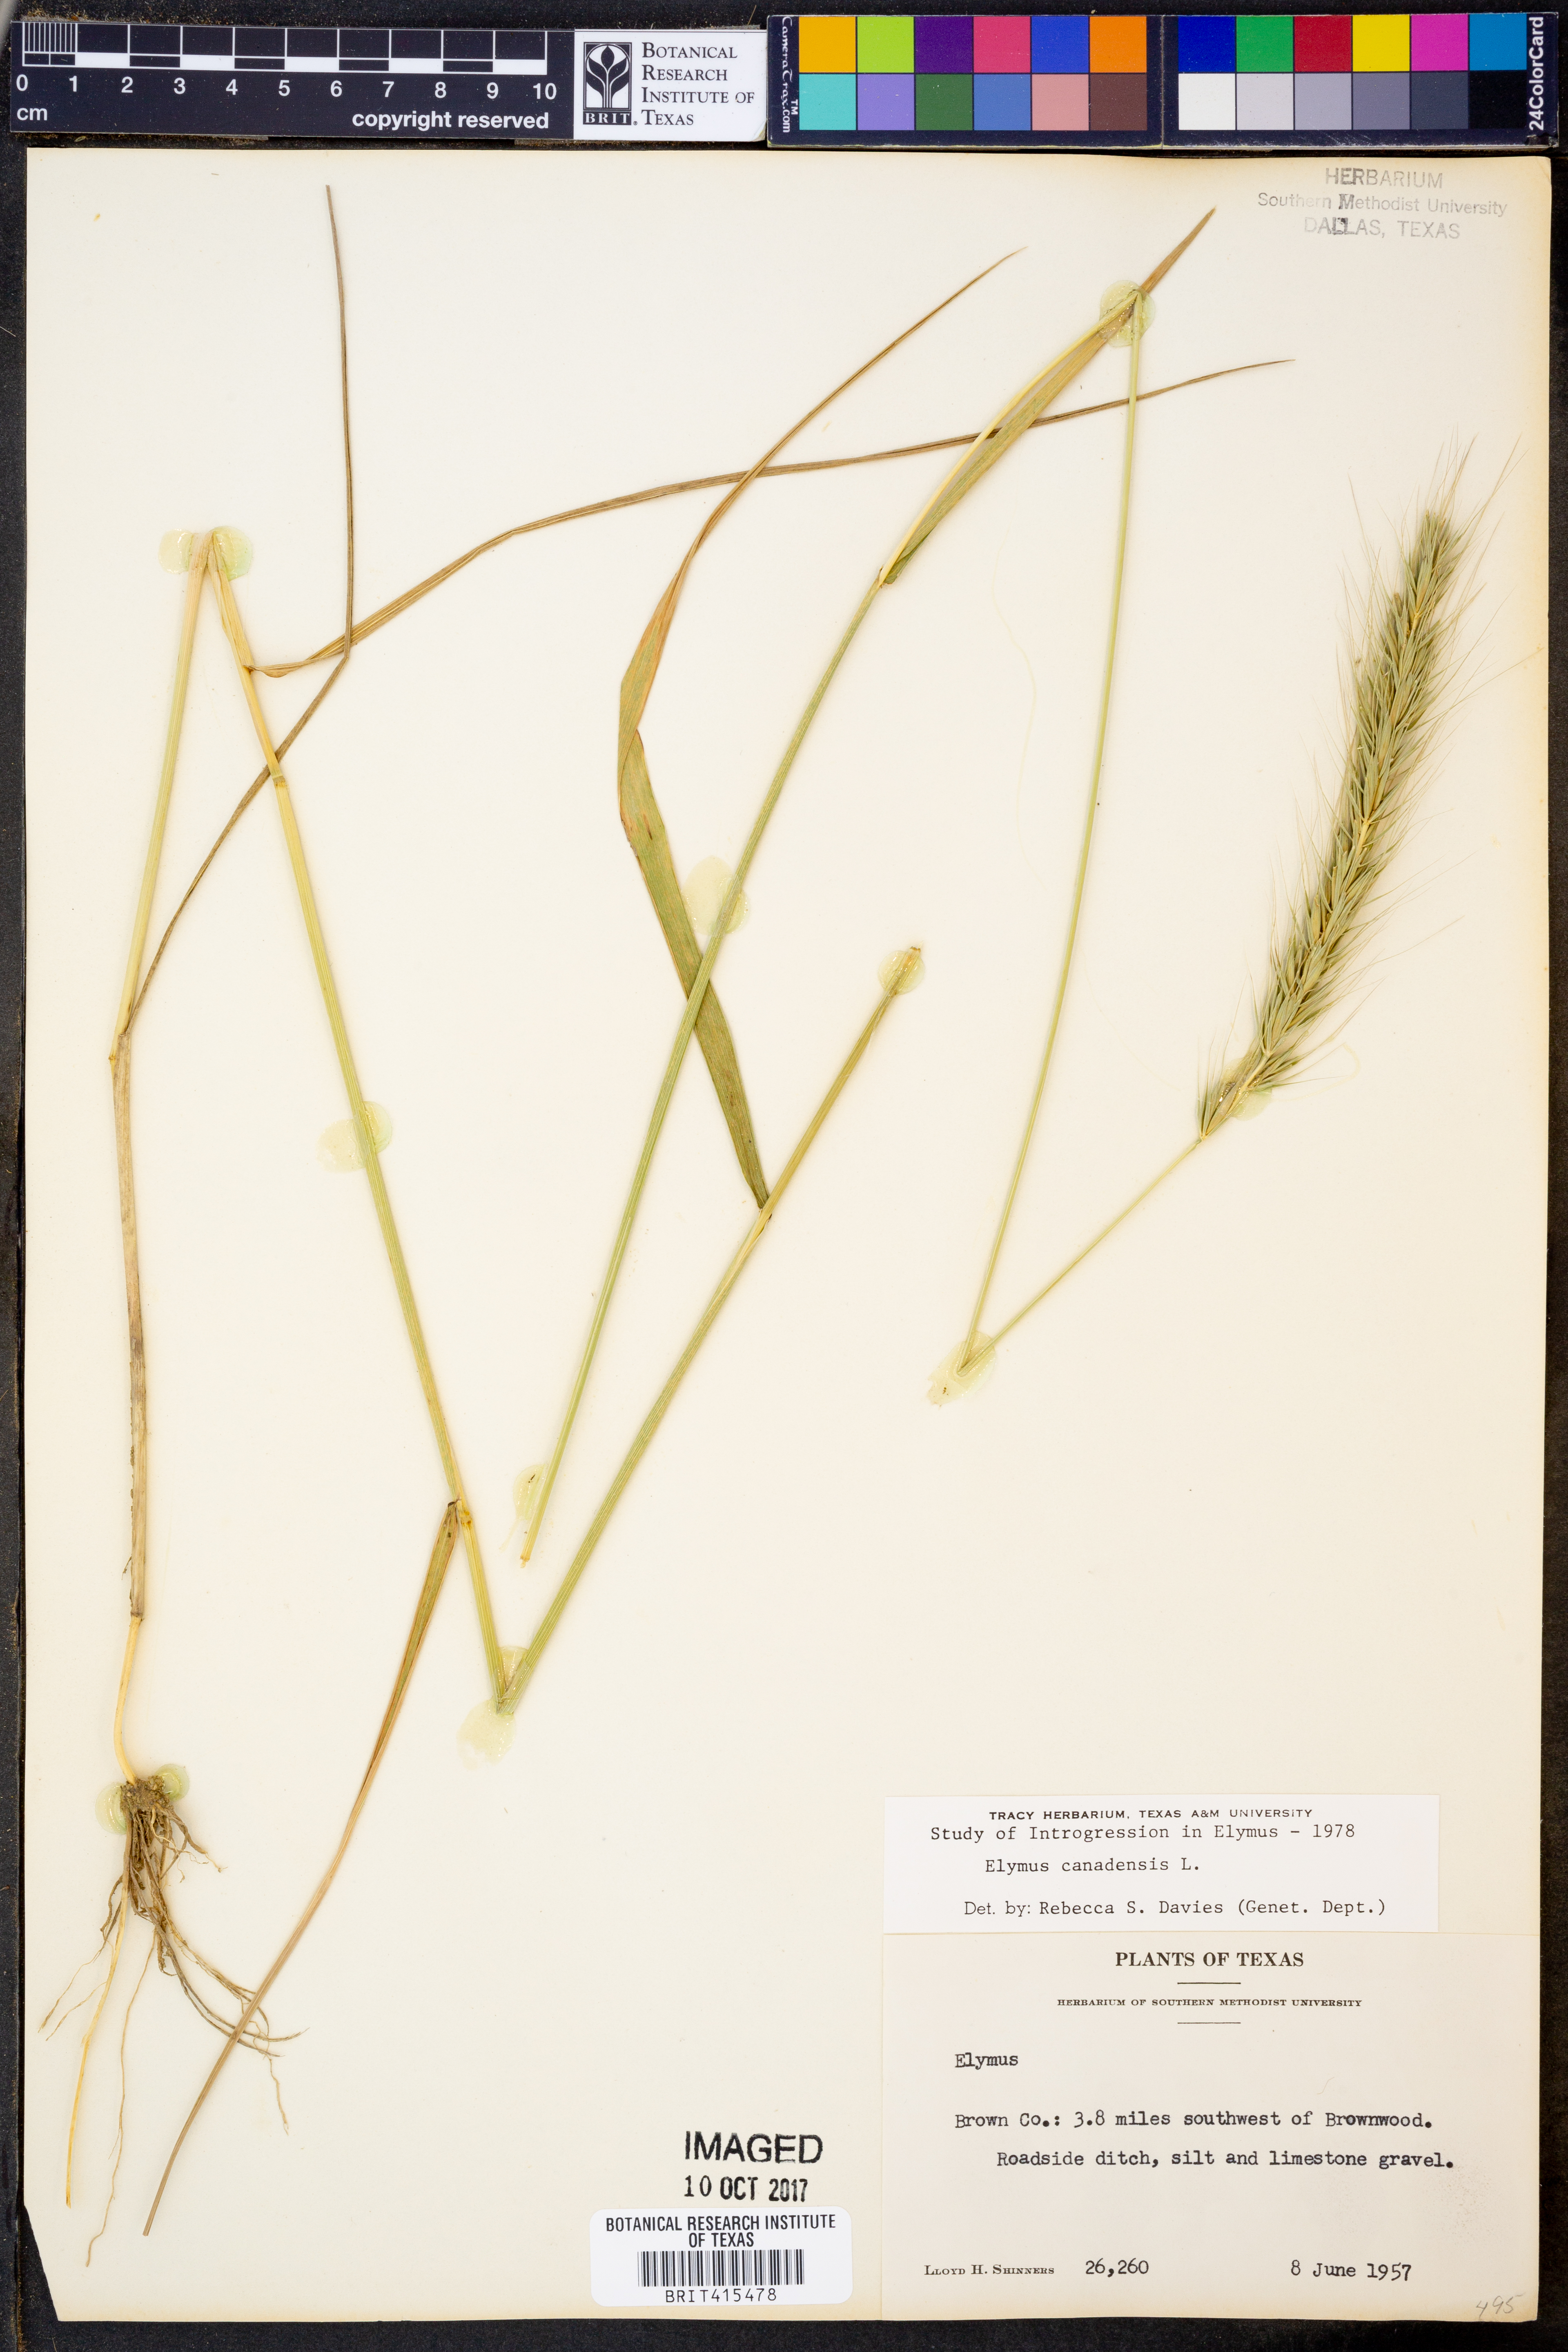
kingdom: Plantae
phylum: Tracheophyta
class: Liliopsida
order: Poales
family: Poaceae
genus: Elymus
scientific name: Elymus canadensis
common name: Canada wild rye
